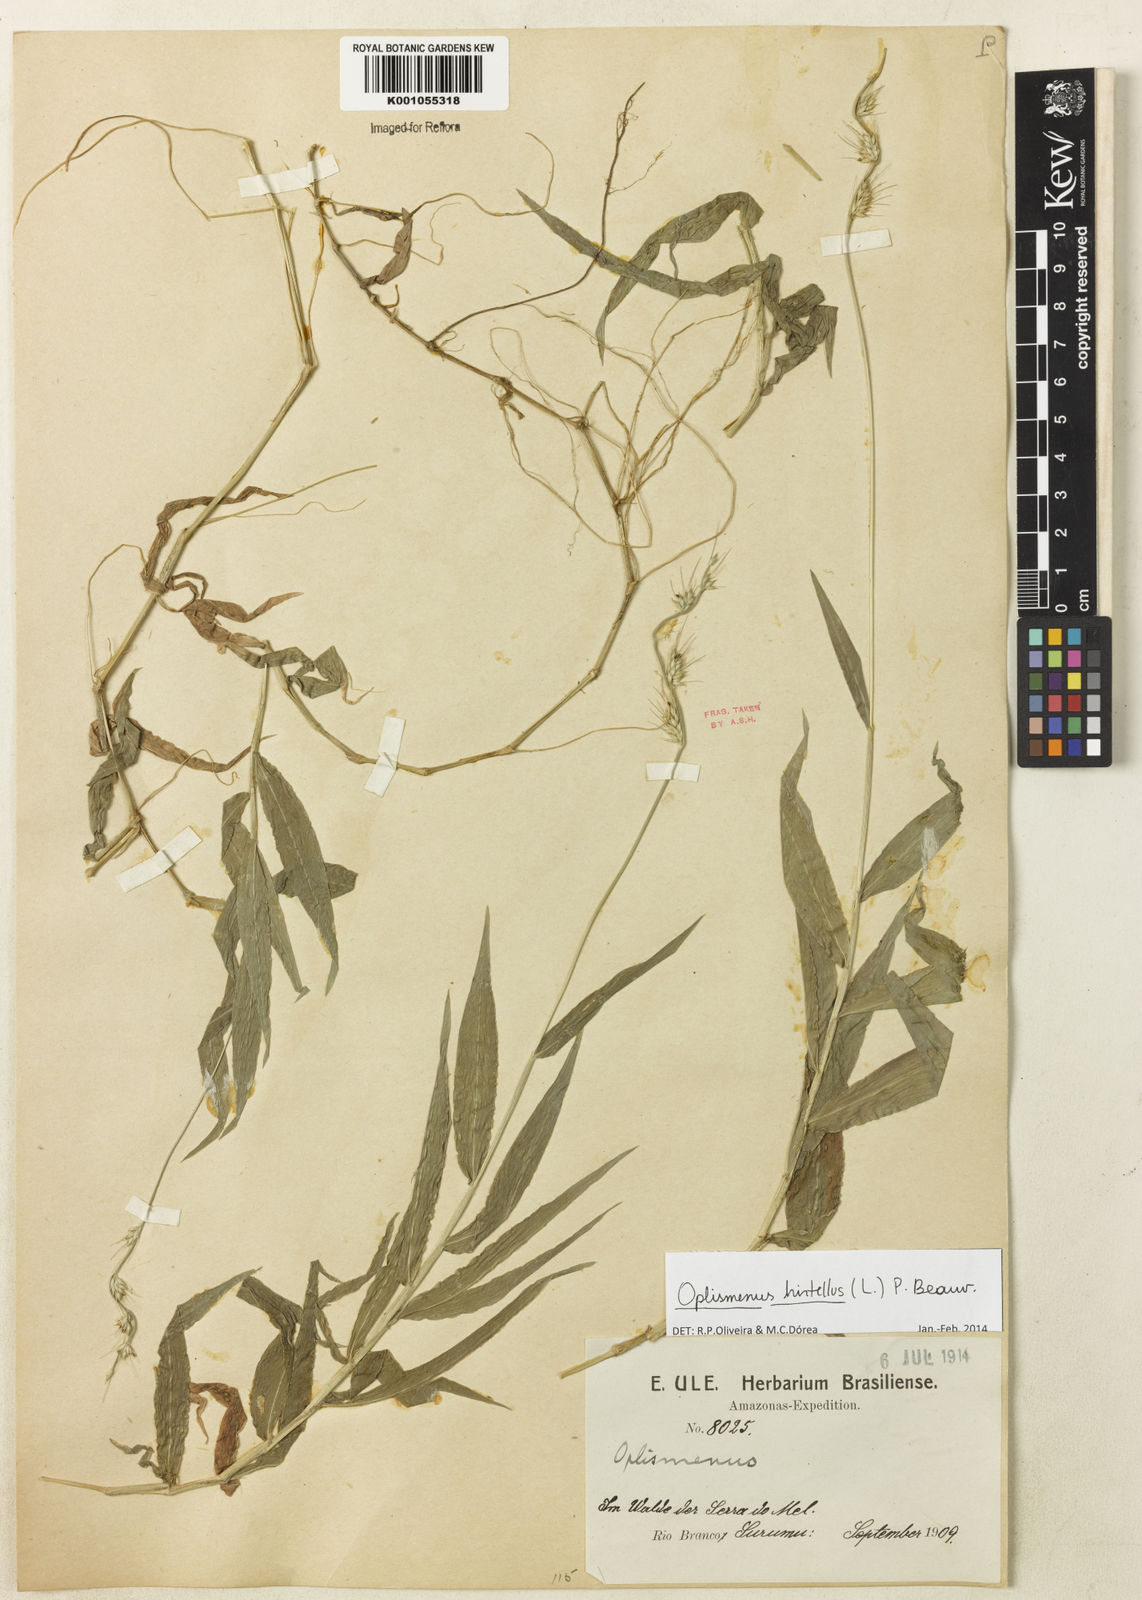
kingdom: Plantae
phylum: Tracheophyta
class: Liliopsida
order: Poales
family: Poaceae
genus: Oplismenus
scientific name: Oplismenus hirtellus
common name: Basketgrass
